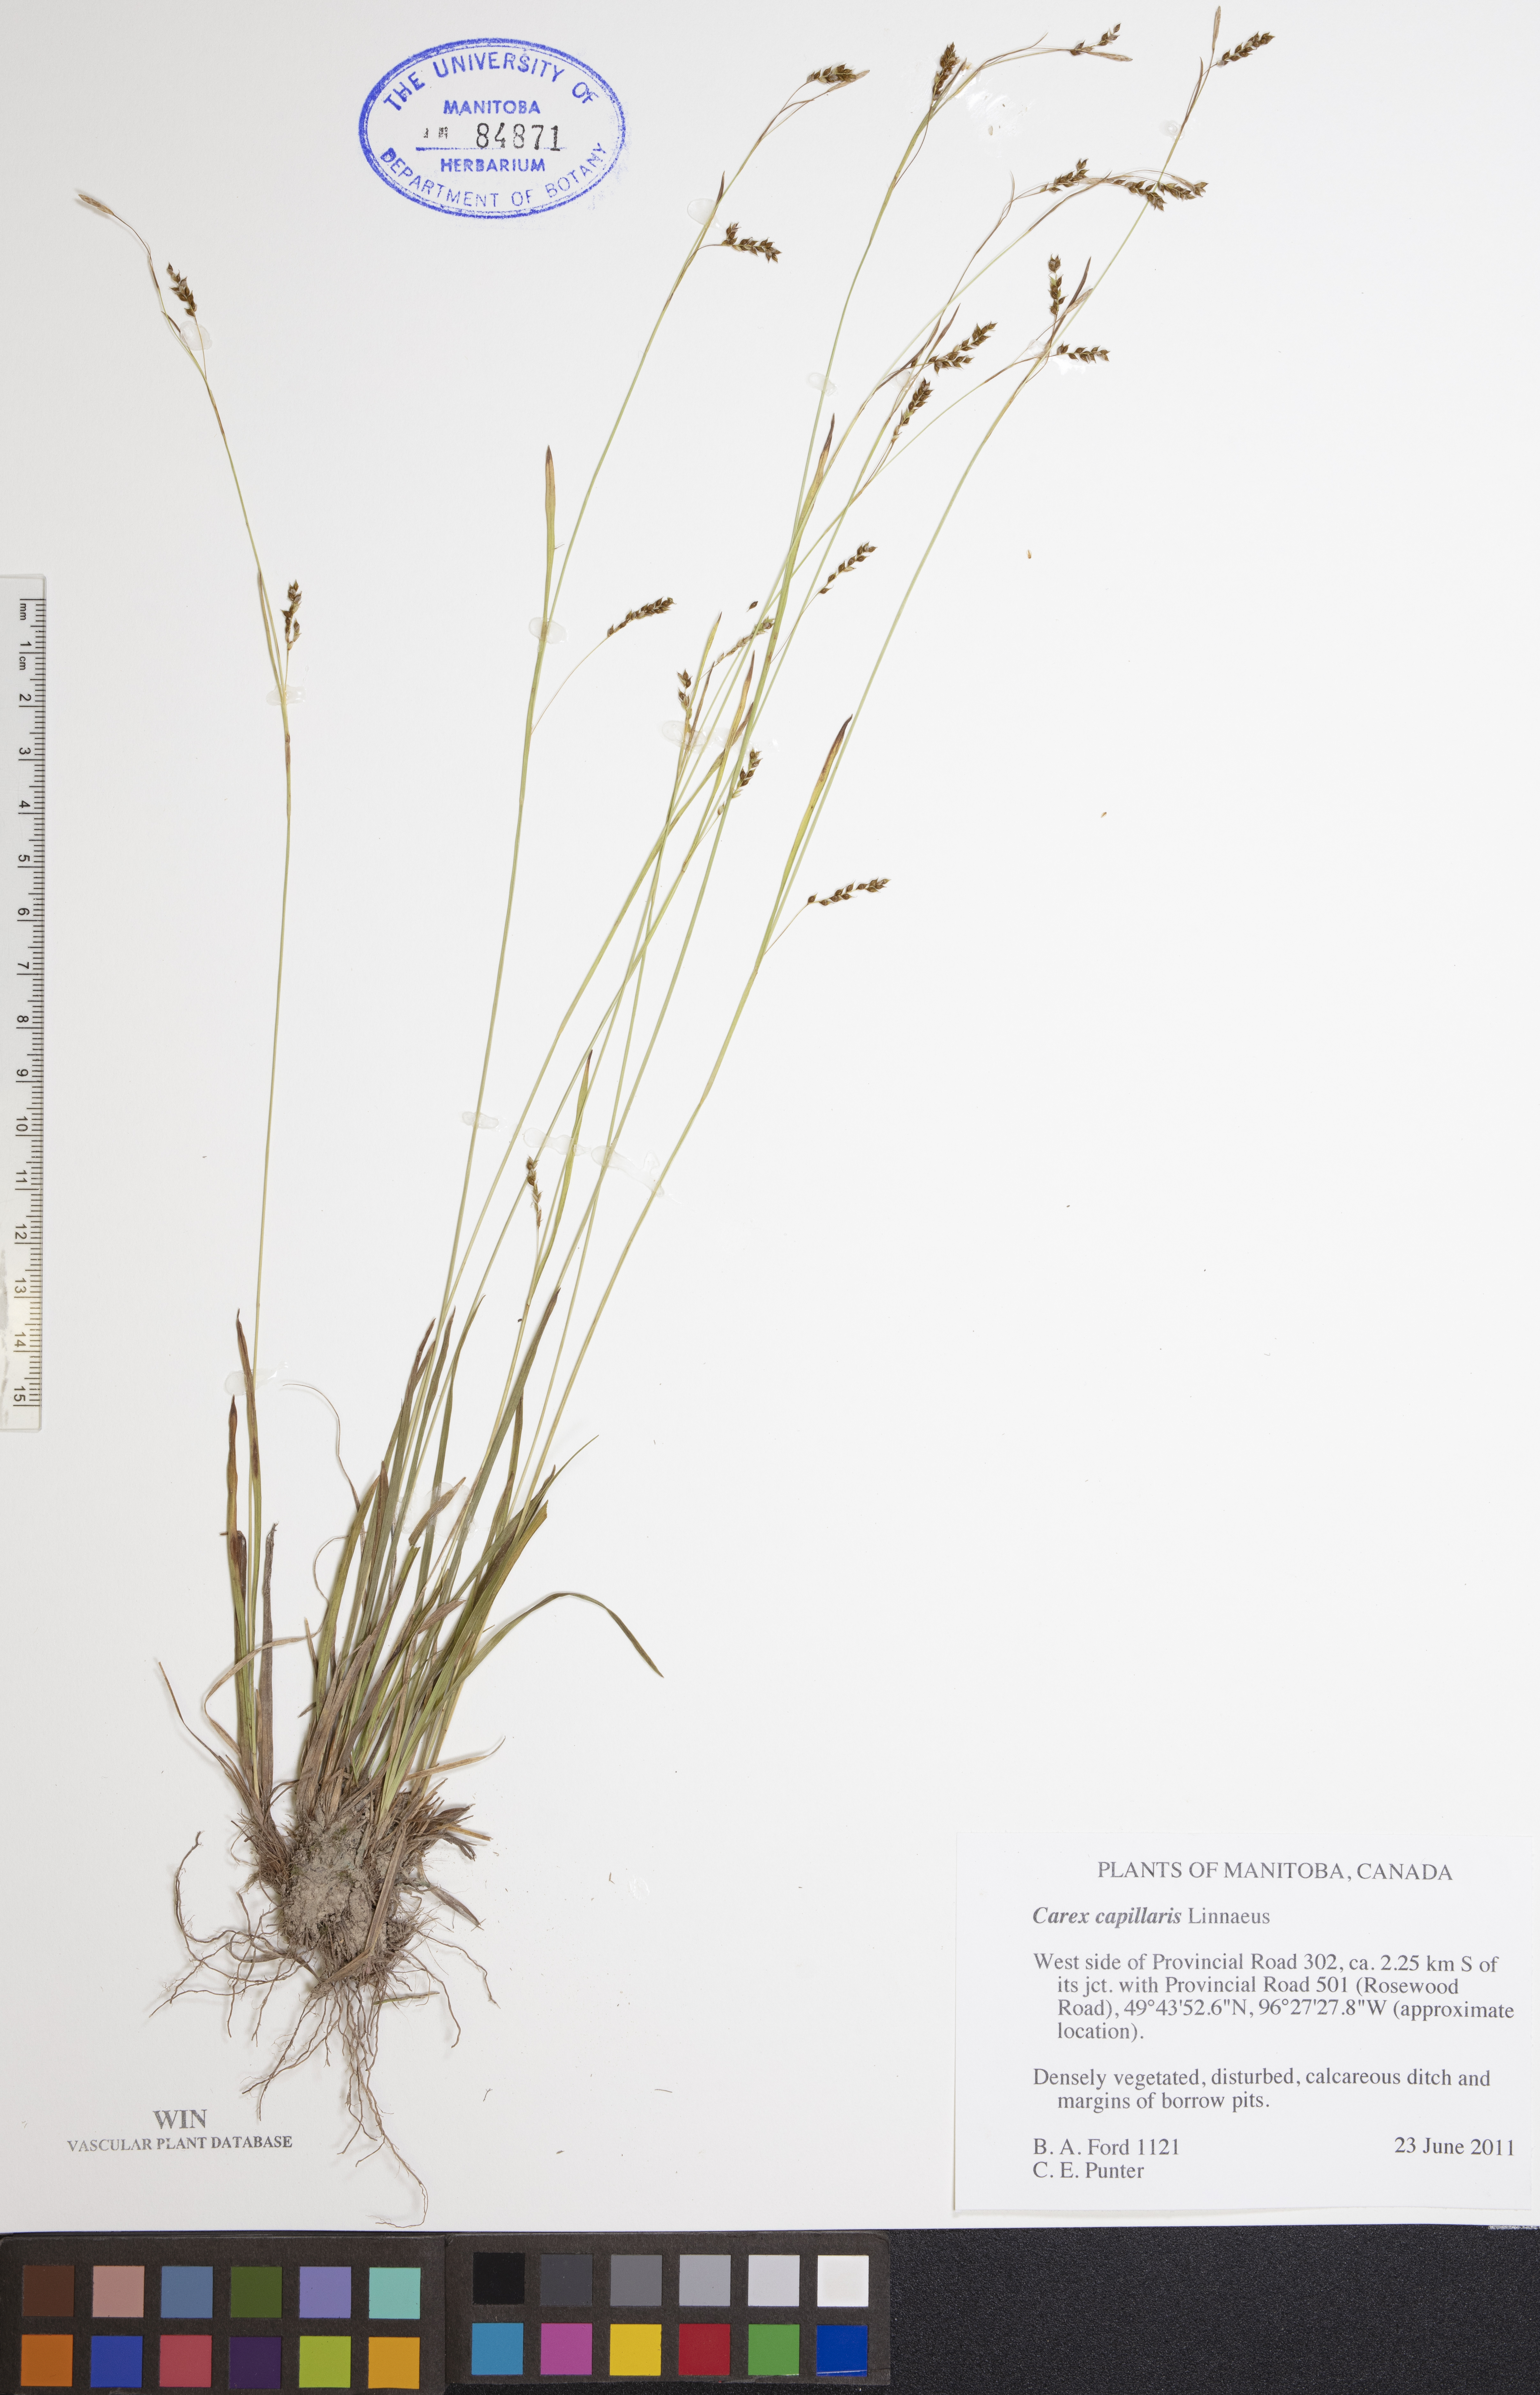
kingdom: Plantae
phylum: Tracheophyta
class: Liliopsida
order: Poales
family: Cyperaceae
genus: Carex
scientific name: Carex capillaris
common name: Hair sedge
